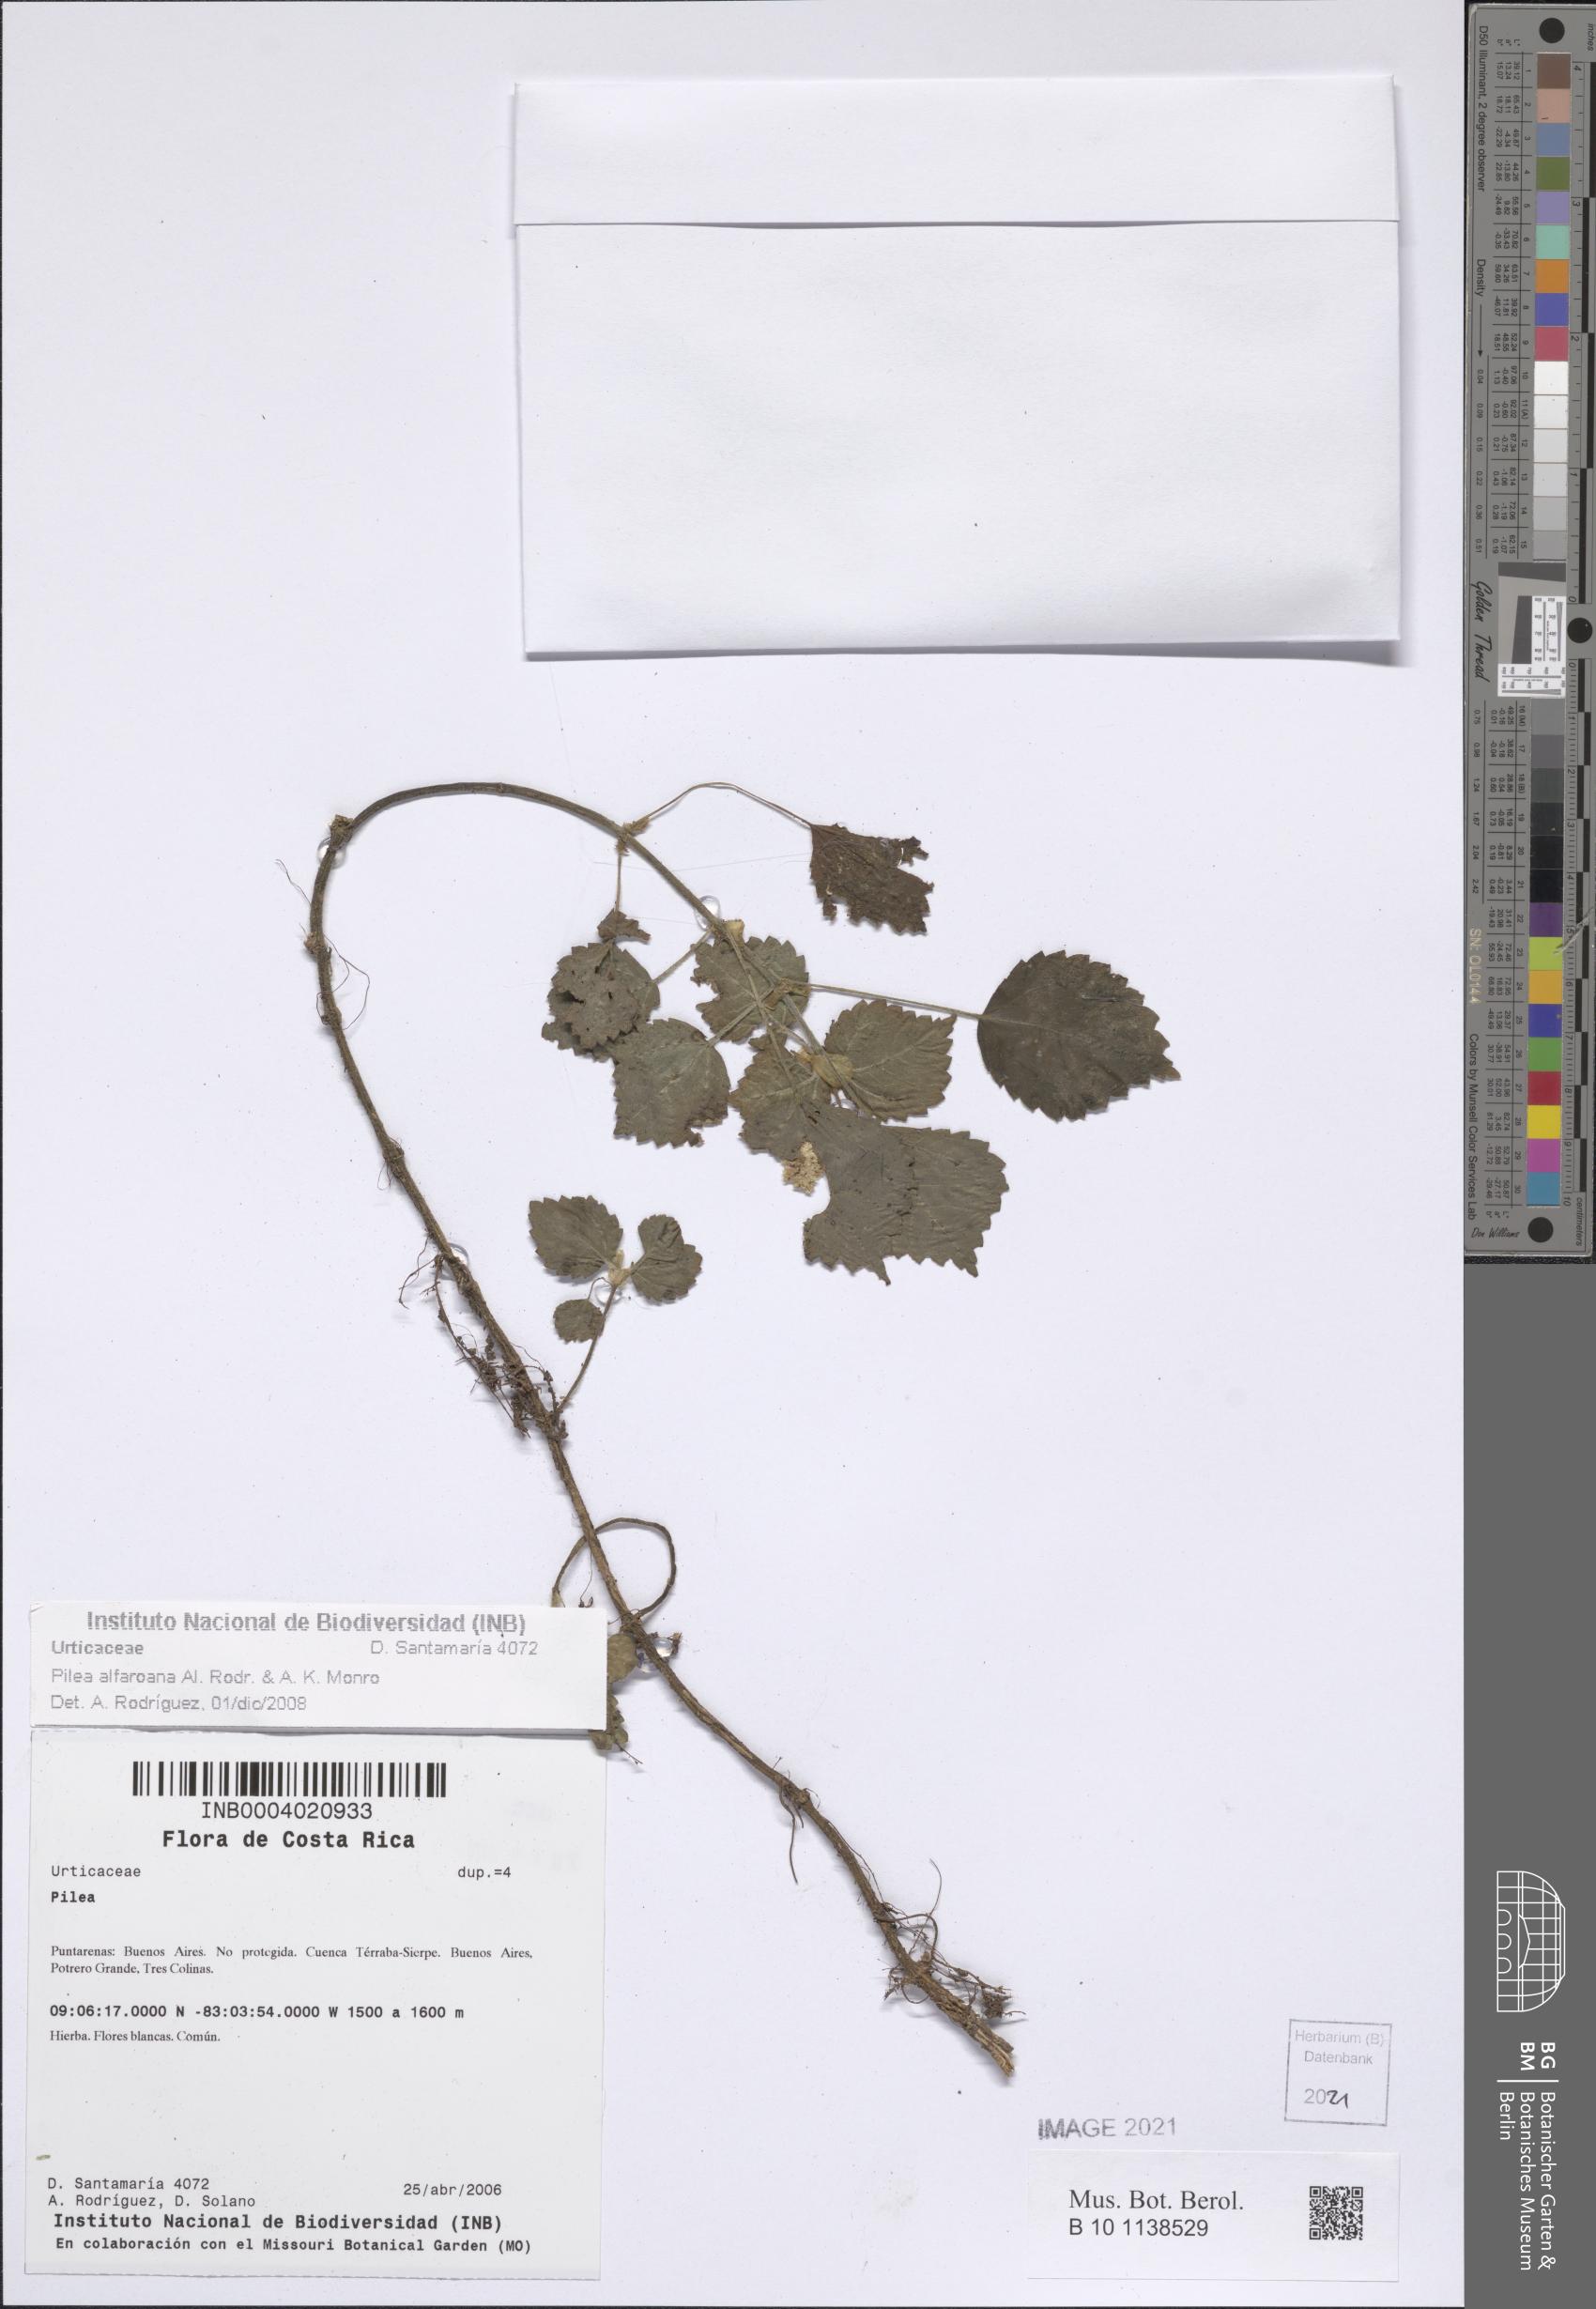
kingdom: Plantae
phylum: Tracheophyta
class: Magnoliopsida
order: Rosales
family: Urticaceae
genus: Pilea
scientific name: Pilea alfaroana
